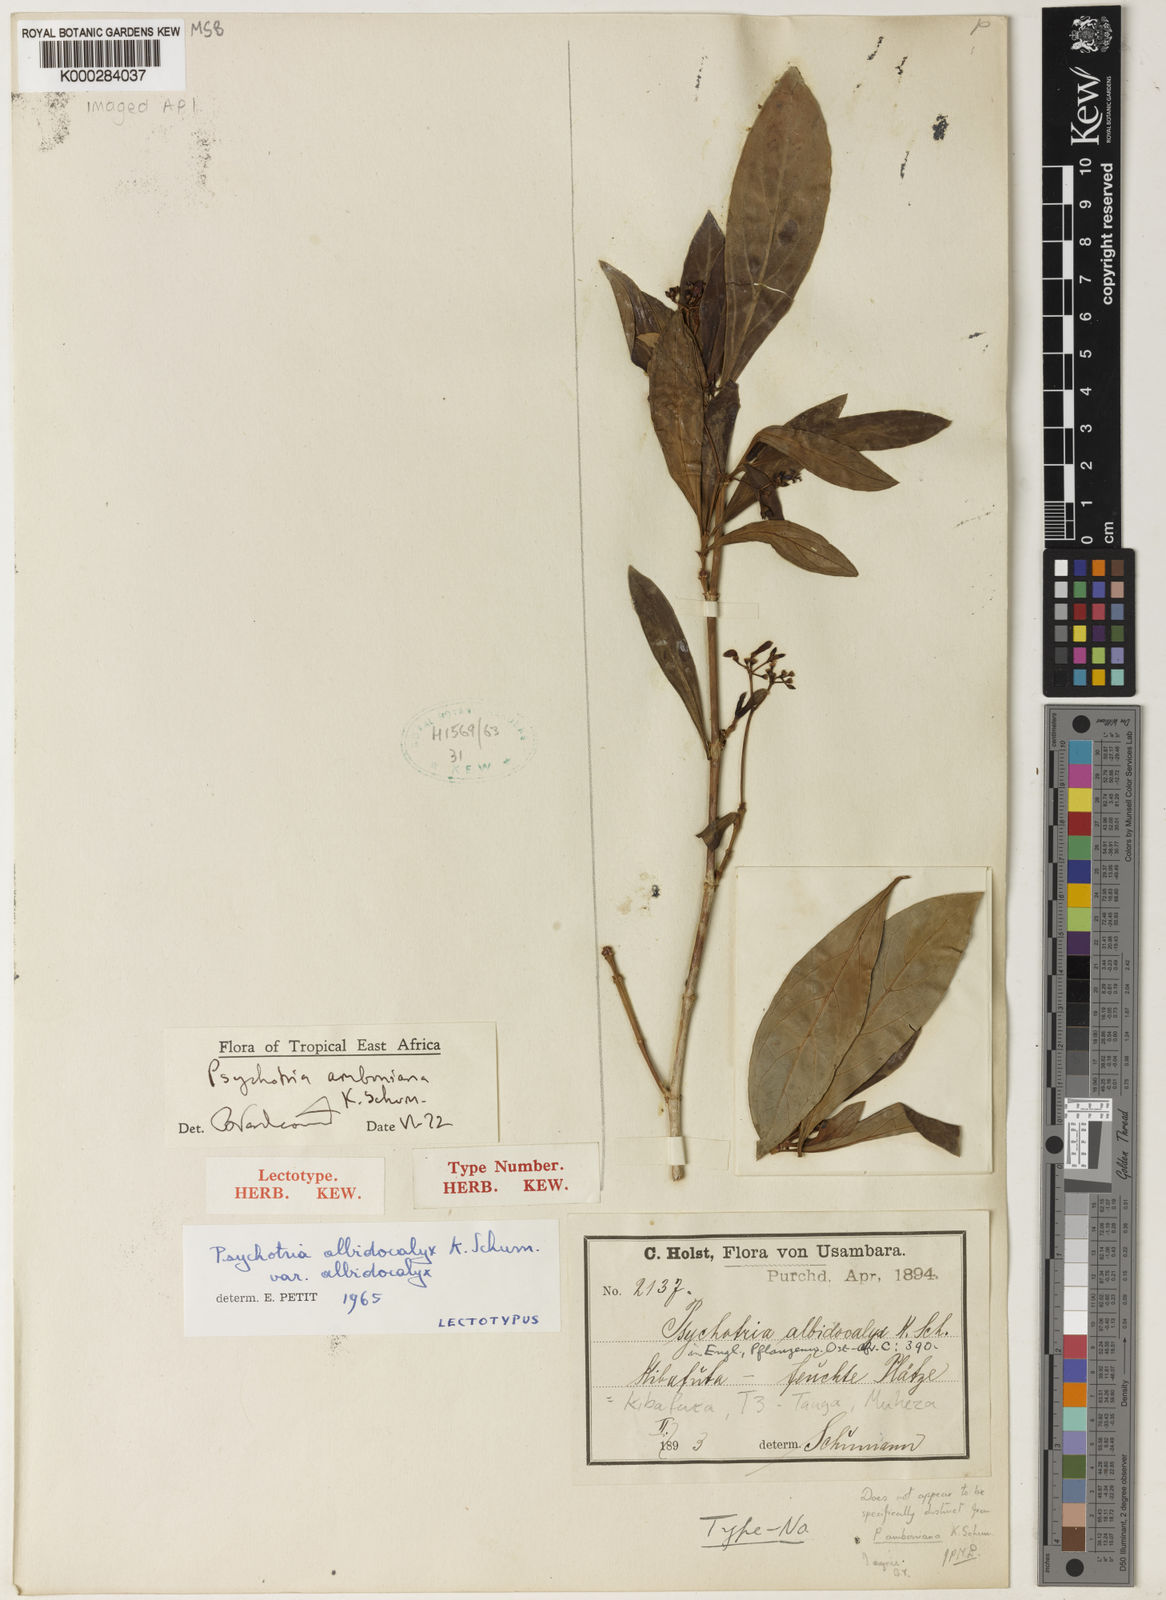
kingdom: Plantae
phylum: Tracheophyta
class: Magnoliopsida
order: Gentianales
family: Rubiaceae
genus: Psychotria
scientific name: Psychotria amboniana
